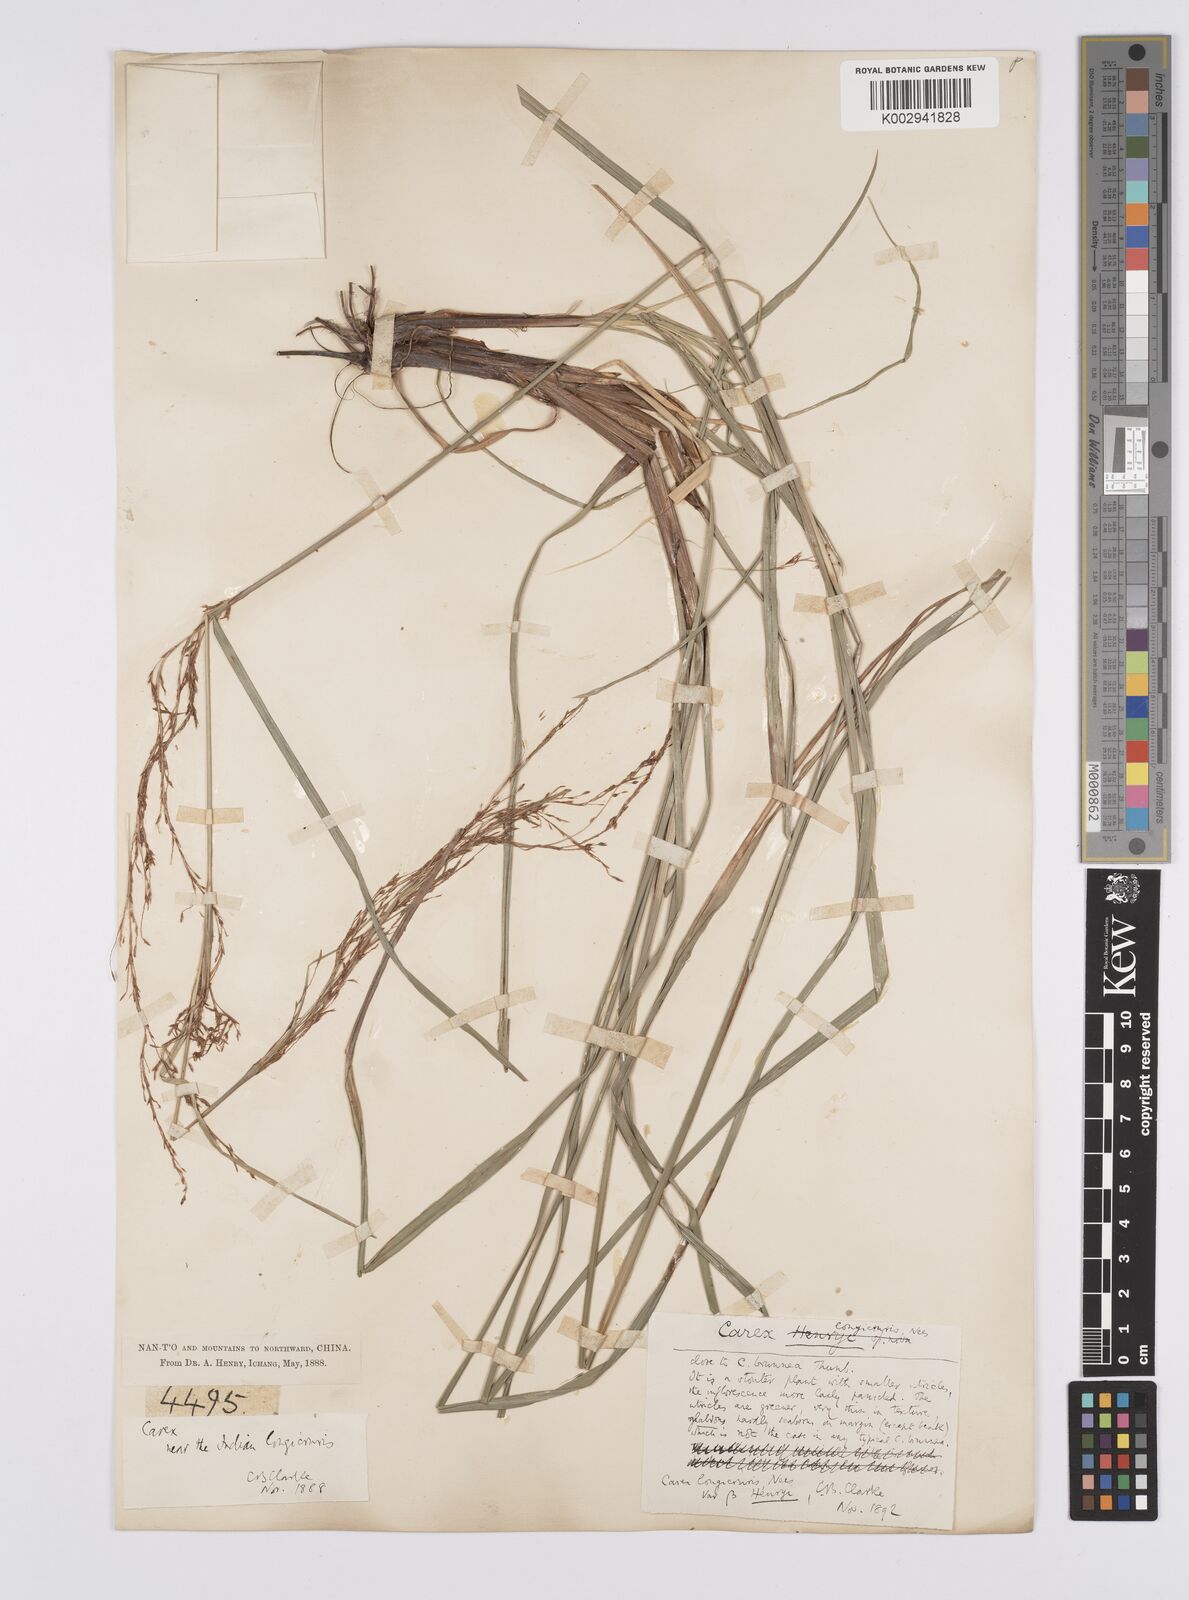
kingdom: Plantae
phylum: Tracheophyta
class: Liliopsida
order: Poales
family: Cyperaceae
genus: Carex
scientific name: Carex longicruris
